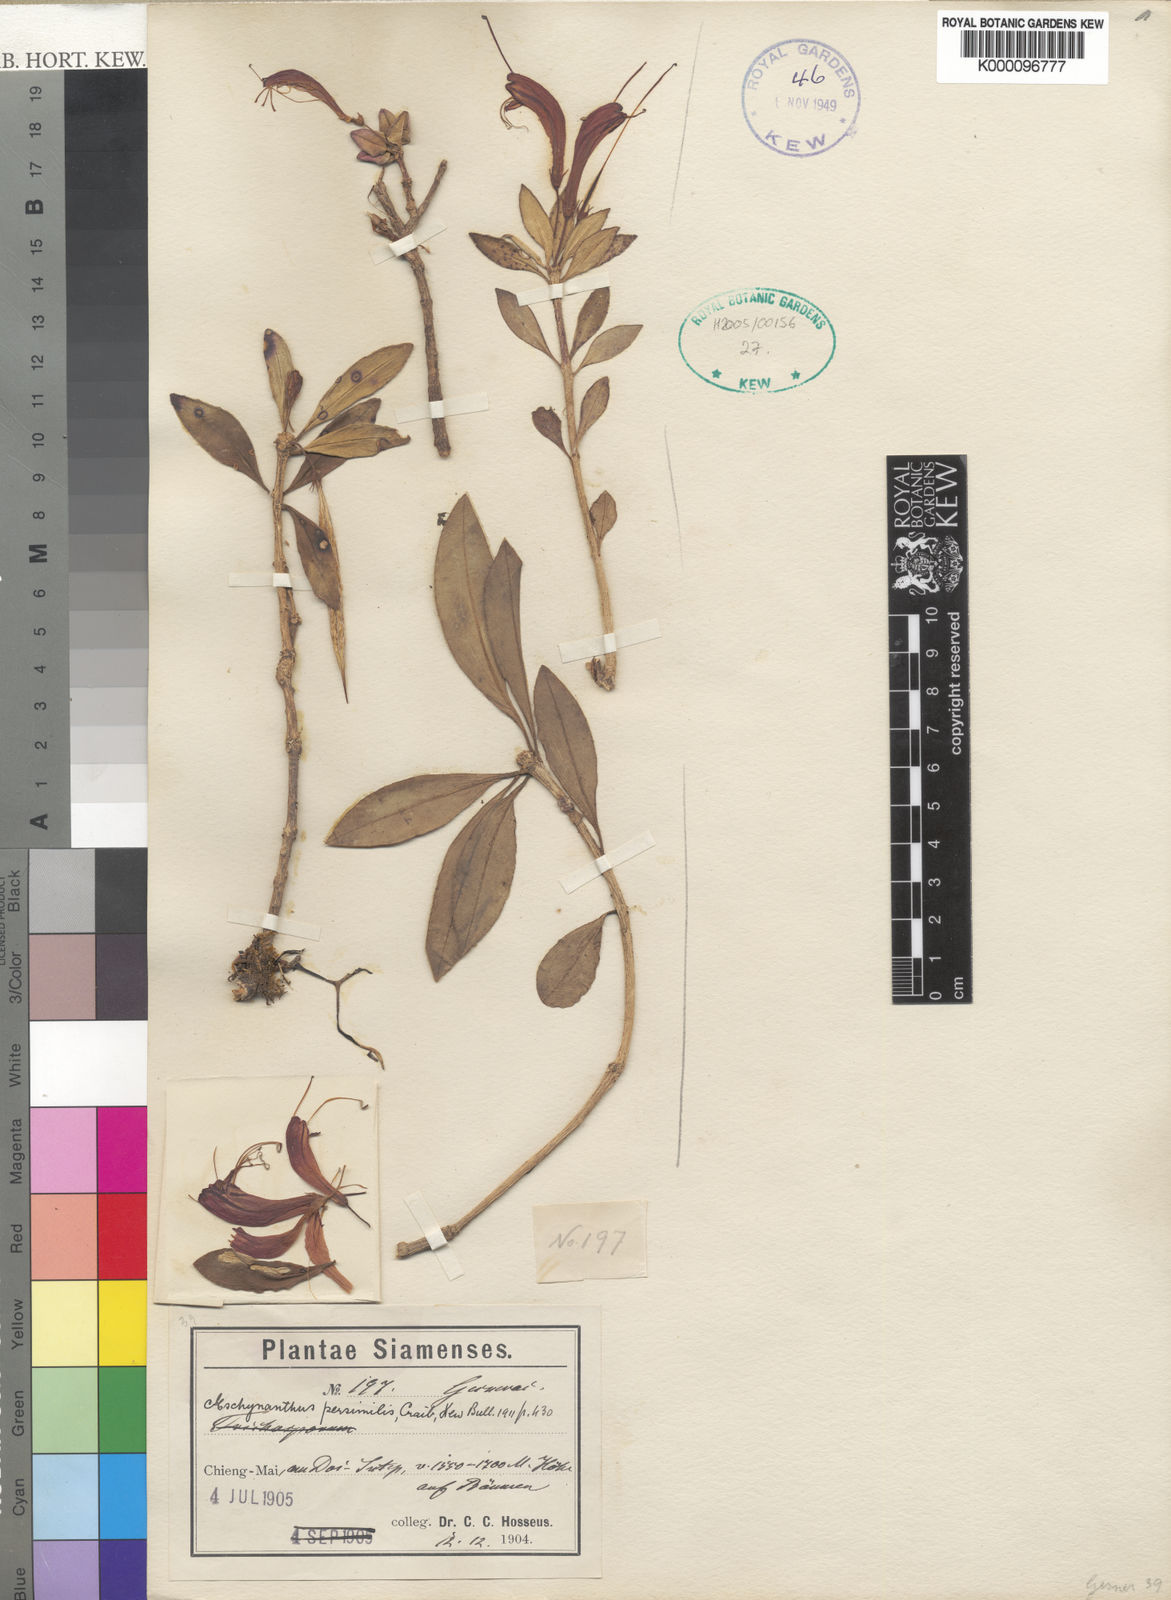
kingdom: Plantae
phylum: Tracheophyta
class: Magnoliopsida
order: Lamiales
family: Gesneriaceae
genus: Aeschynanthus
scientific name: Aeschynanthus andersonii
